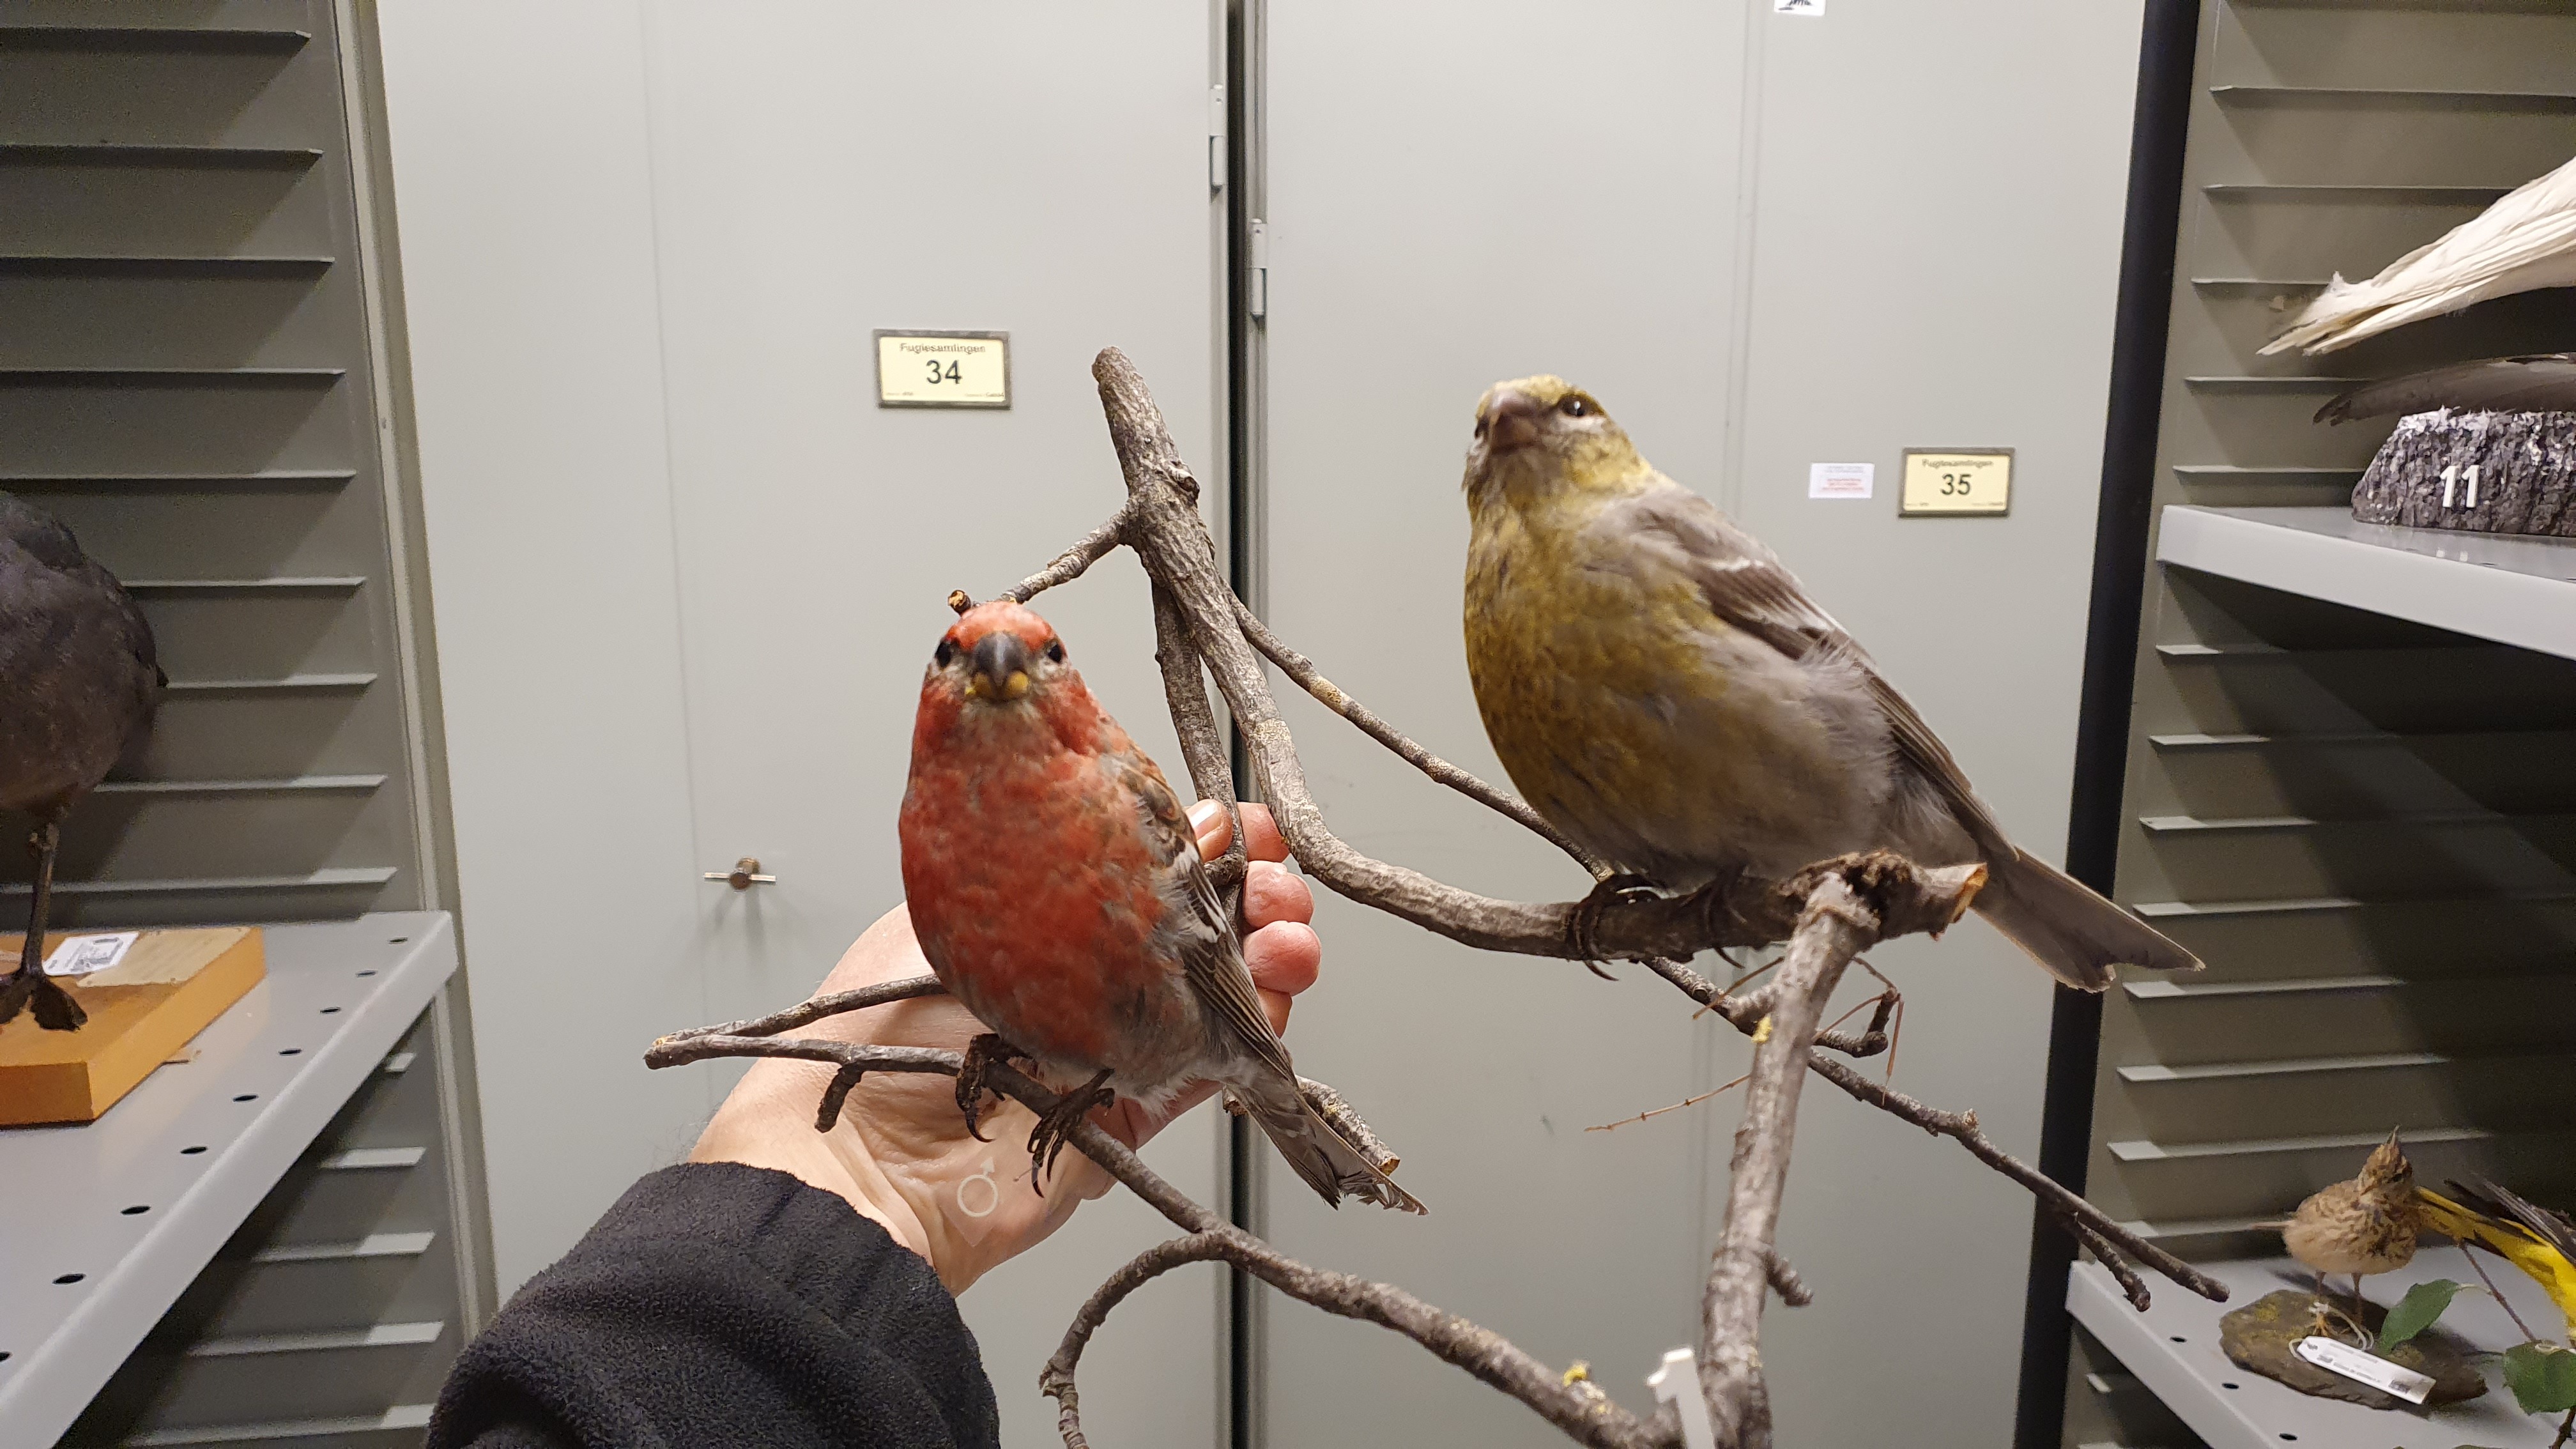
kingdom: Animalia
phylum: Chordata
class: Aves
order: Passeriformes
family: Fringillidae
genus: Pinicola
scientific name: Pinicola enucleator
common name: Pine grosbeak
